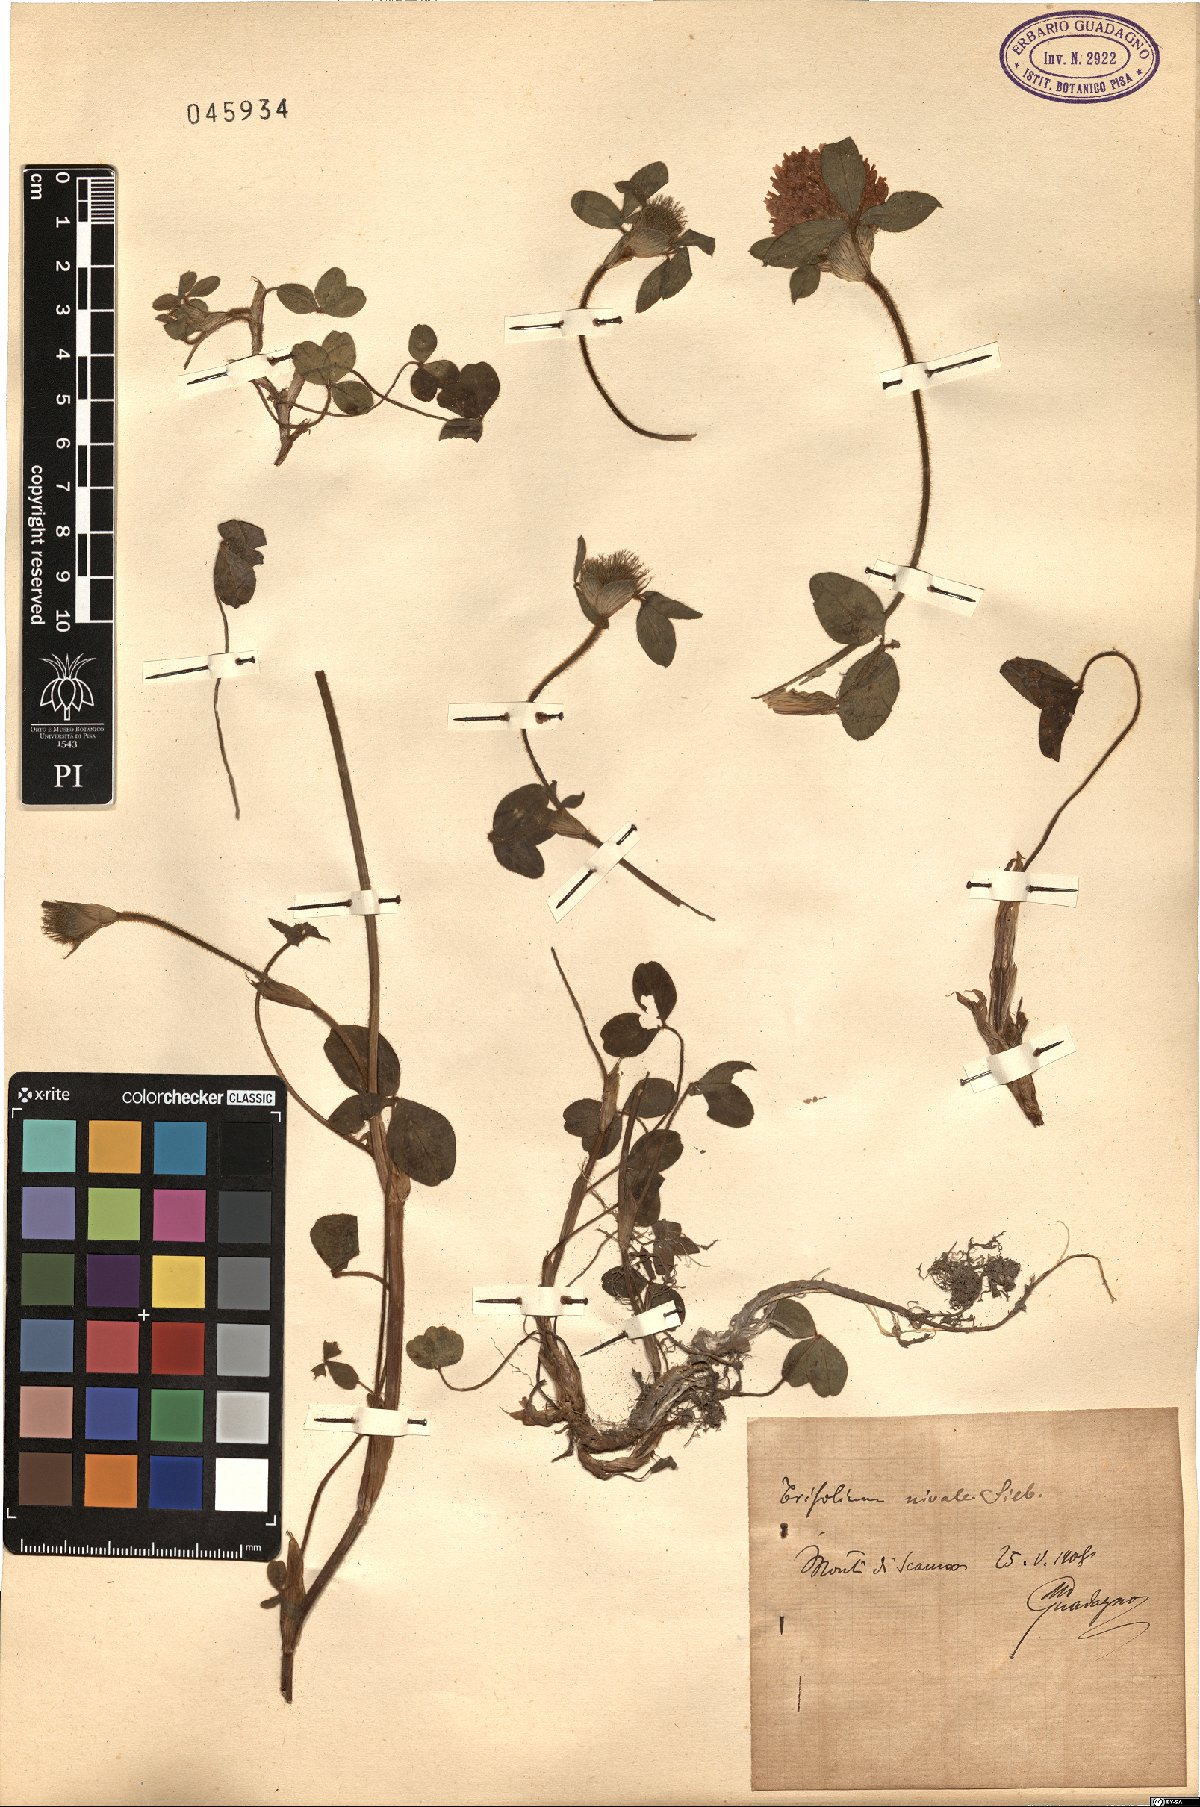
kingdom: Plantae
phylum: Tracheophyta
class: Magnoliopsida
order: Fabales
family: Fabaceae
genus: Trifolium
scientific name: Trifolium pratense
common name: Red clover
